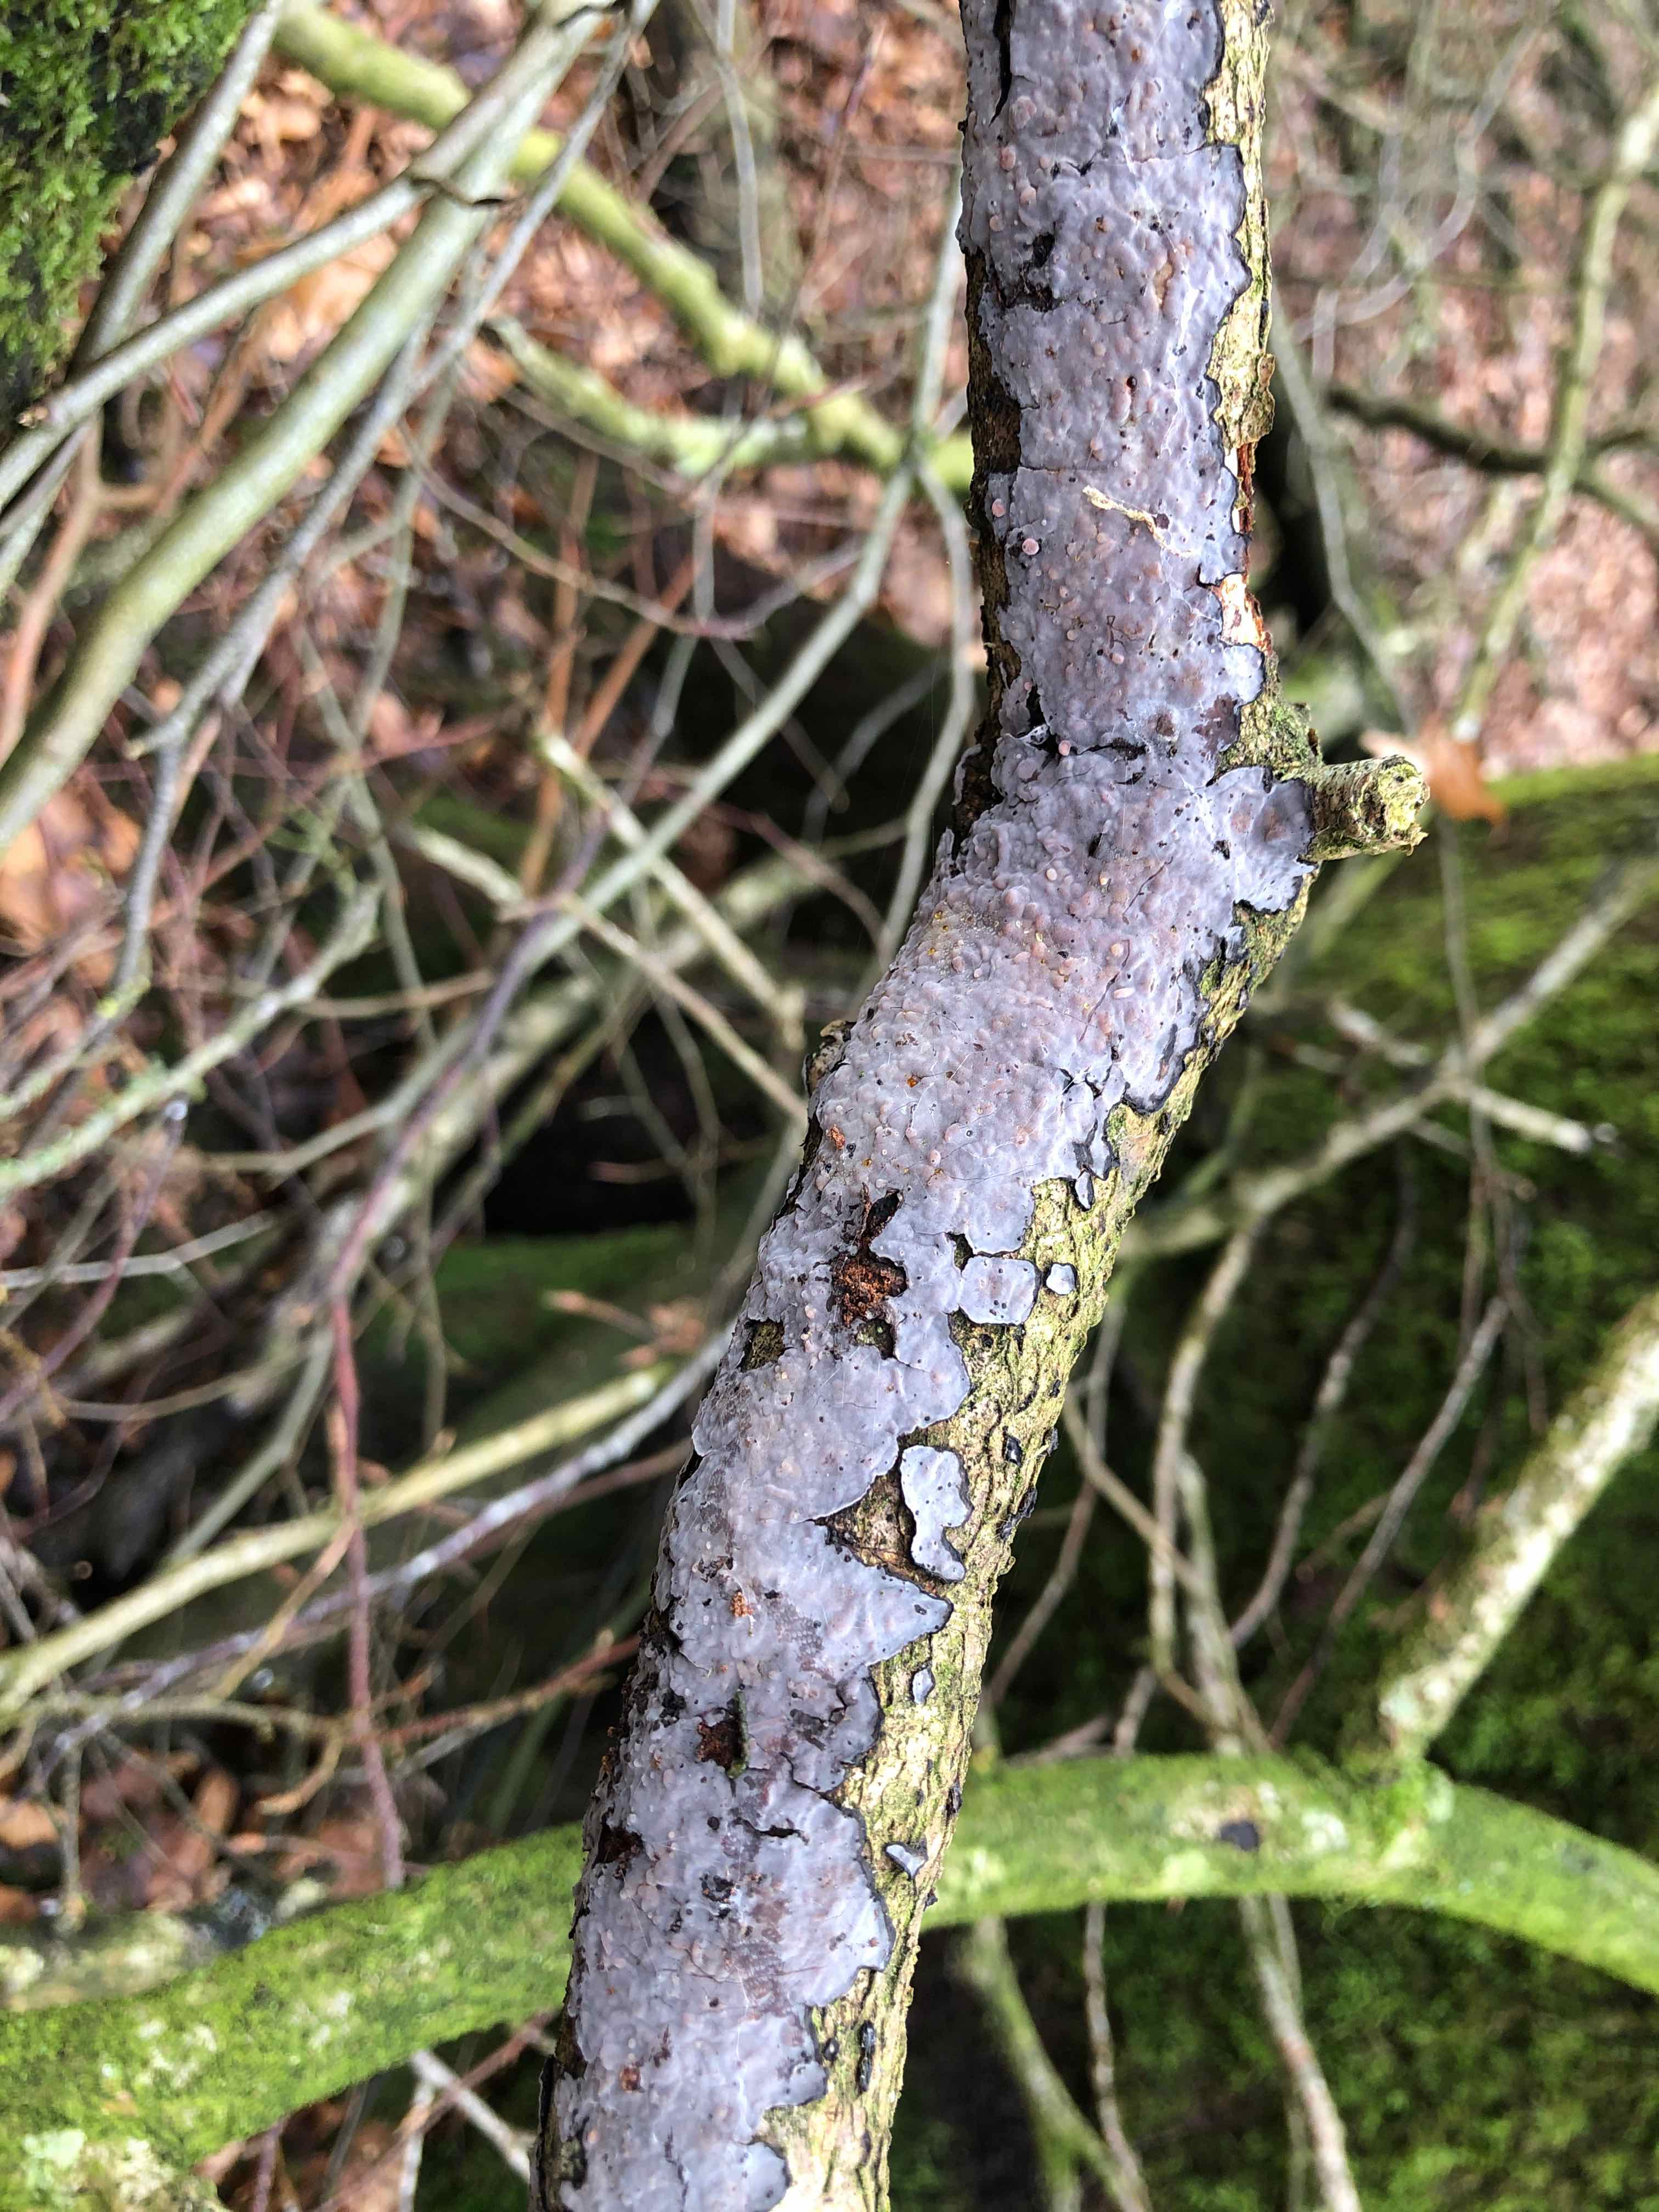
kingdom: Fungi
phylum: Basidiomycota
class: Agaricomycetes
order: Russulales
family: Peniophoraceae
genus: Peniophora
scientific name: Peniophora quercina
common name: ege-voksskind
